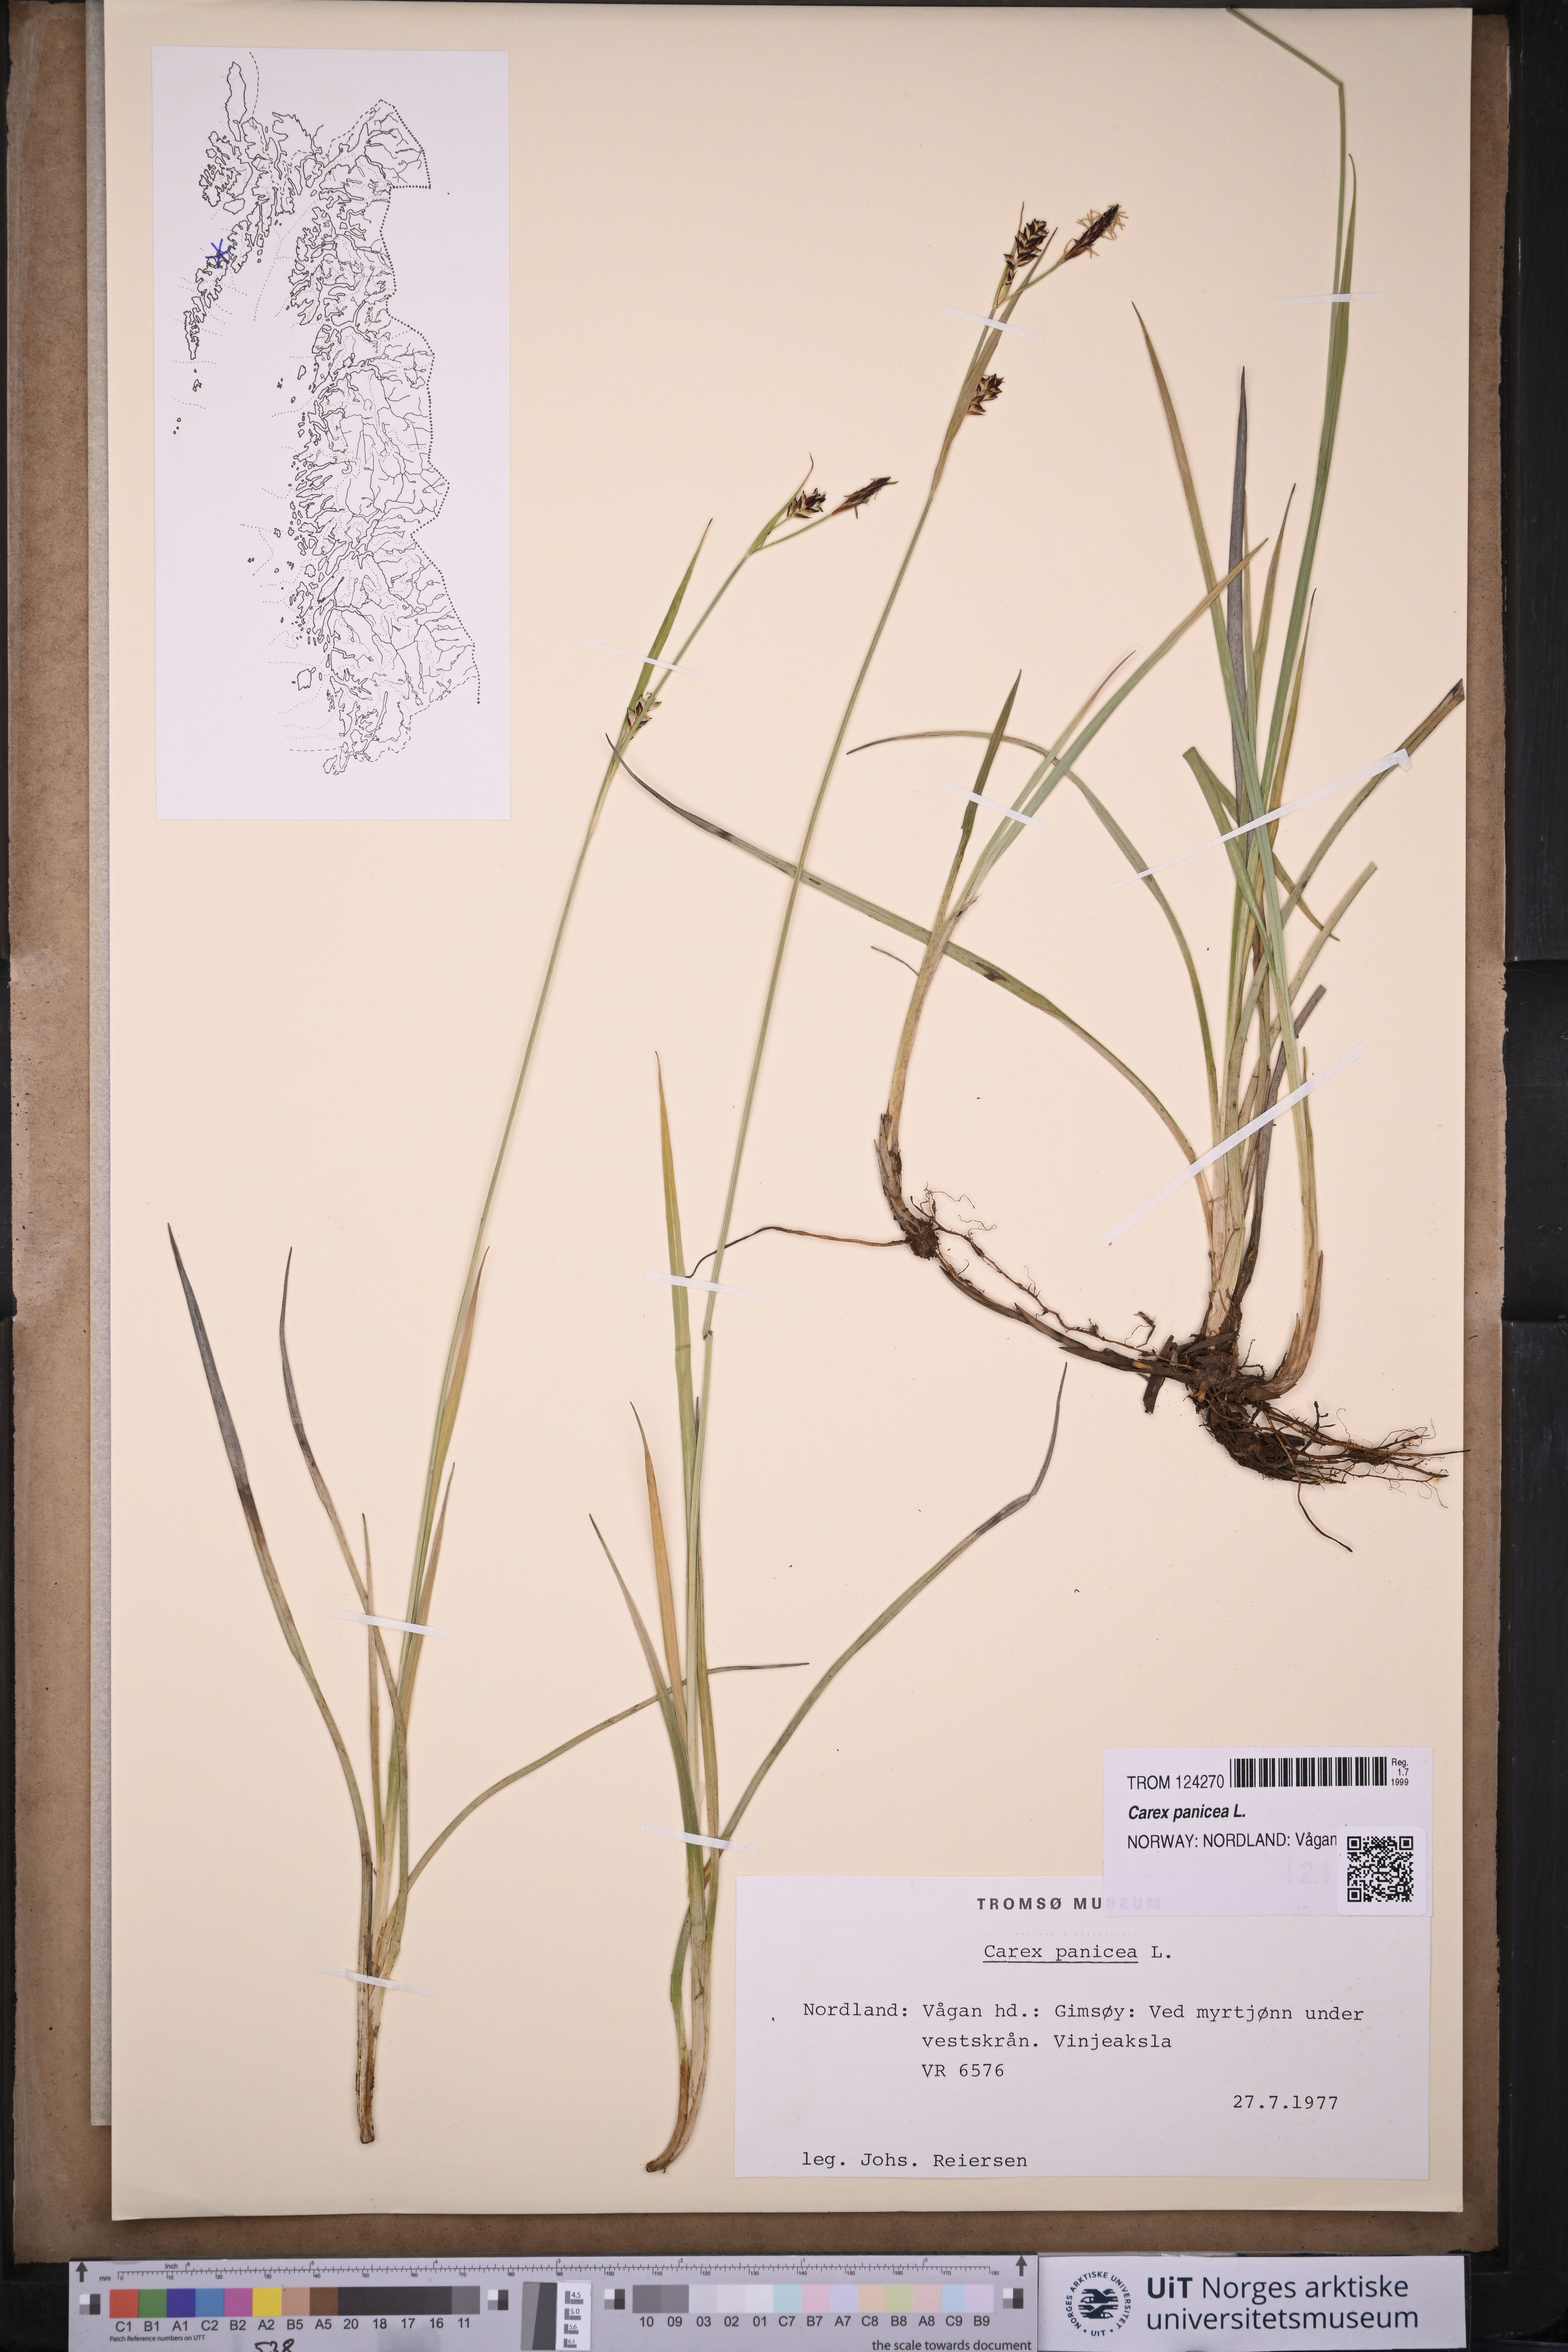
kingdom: Plantae
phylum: Tracheophyta
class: Liliopsida
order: Poales
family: Cyperaceae
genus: Carex
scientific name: Carex panicea
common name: Carnation sedge
